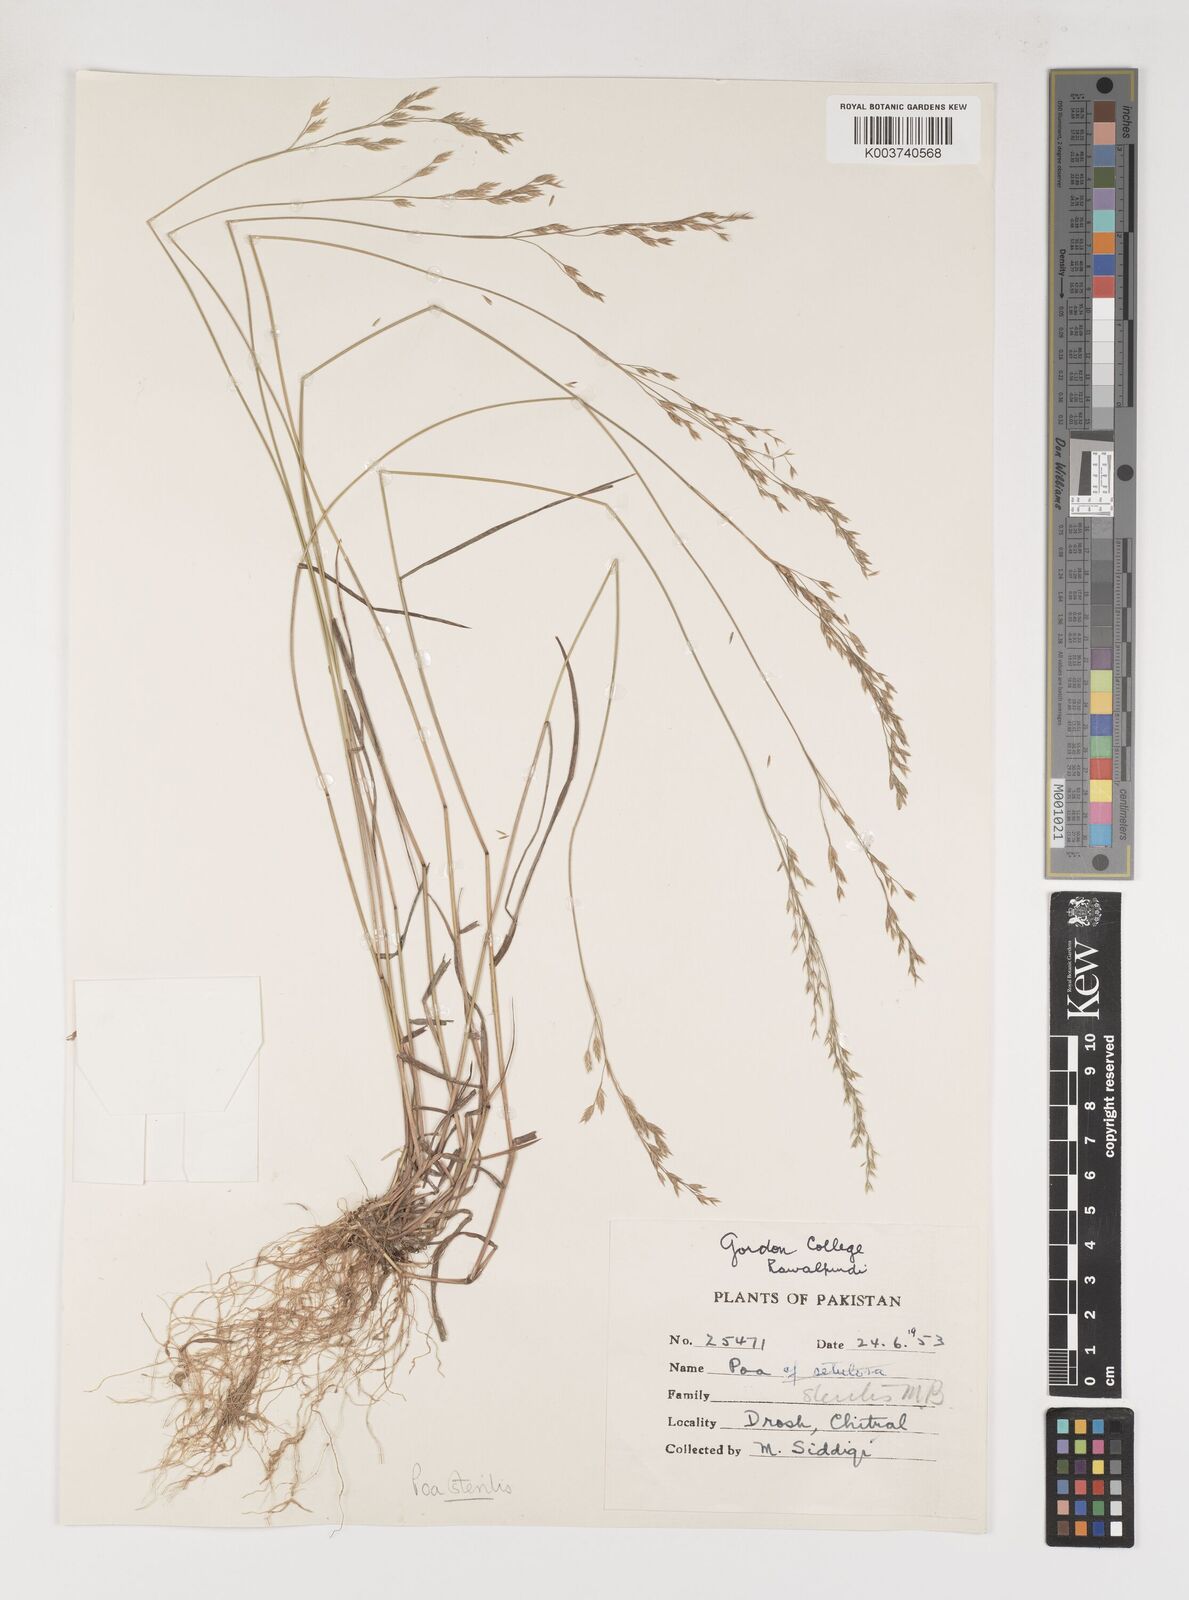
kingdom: Plantae
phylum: Tracheophyta
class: Liliopsida
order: Poales
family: Poaceae
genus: Poa
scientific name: Poa sterilis
